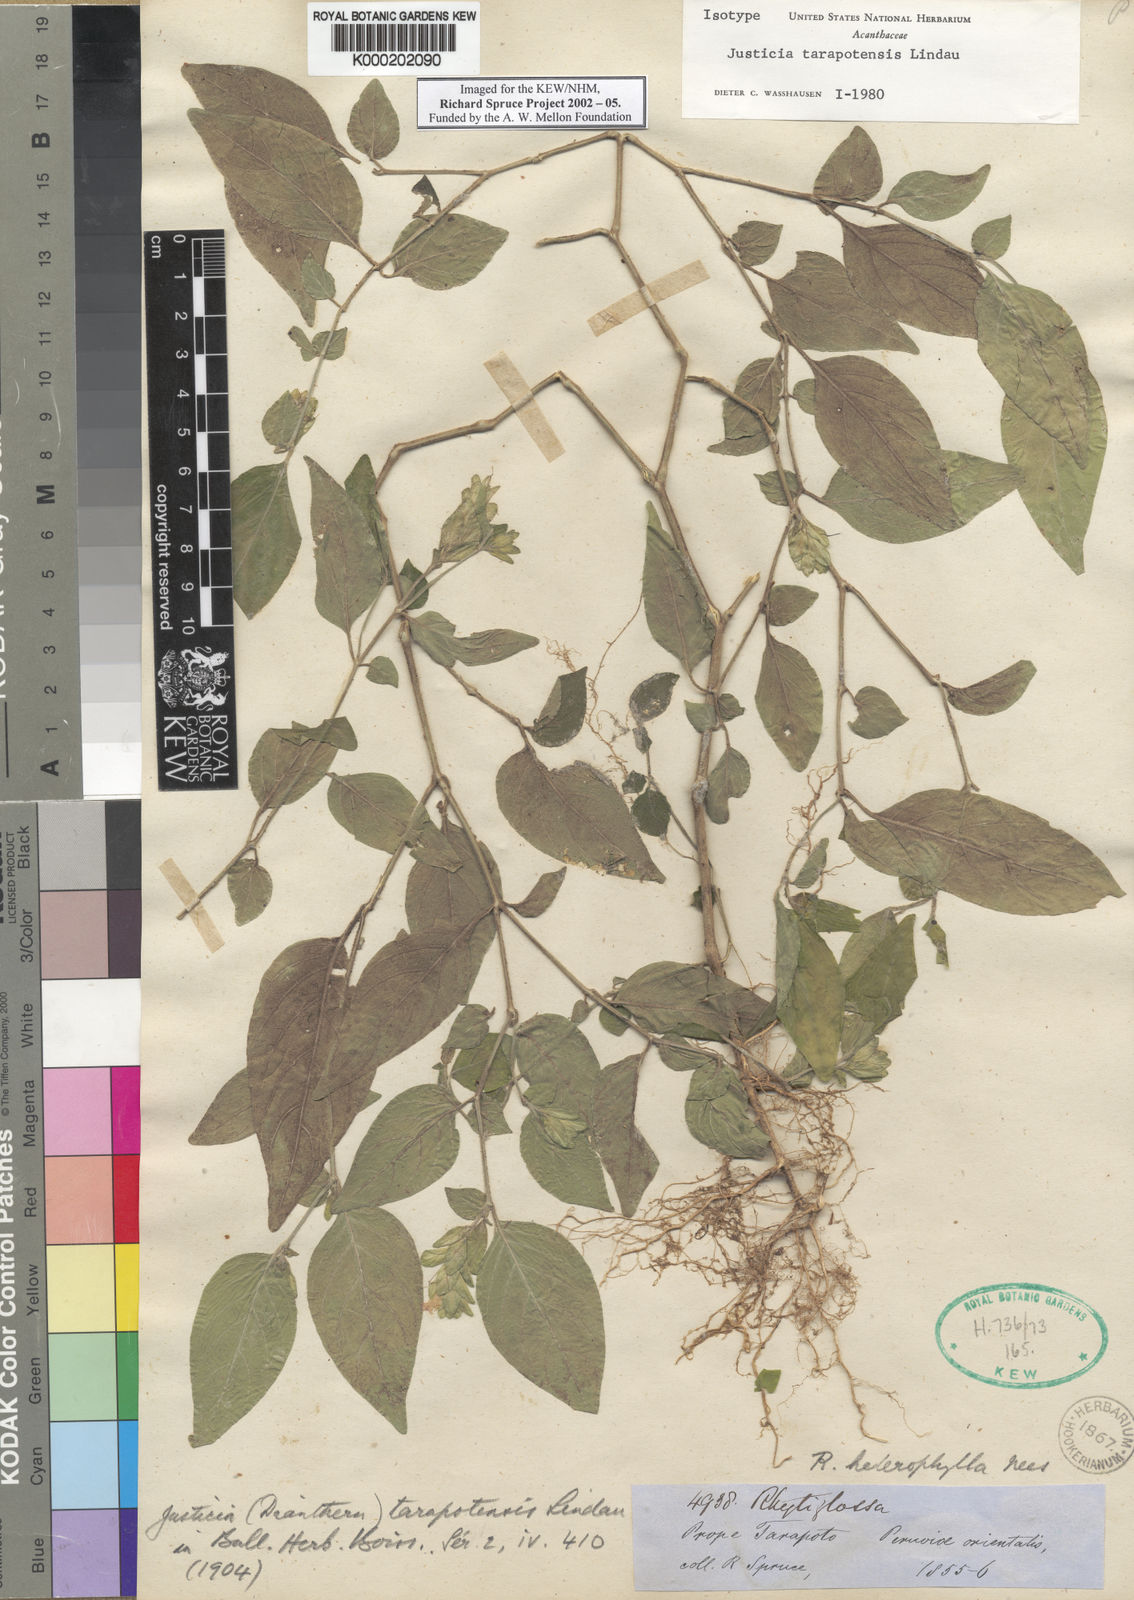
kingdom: Plantae
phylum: Tracheophyta
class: Magnoliopsida
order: Lamiales
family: Acanthaceae
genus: Justicia
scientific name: Justicia tarapotensis
